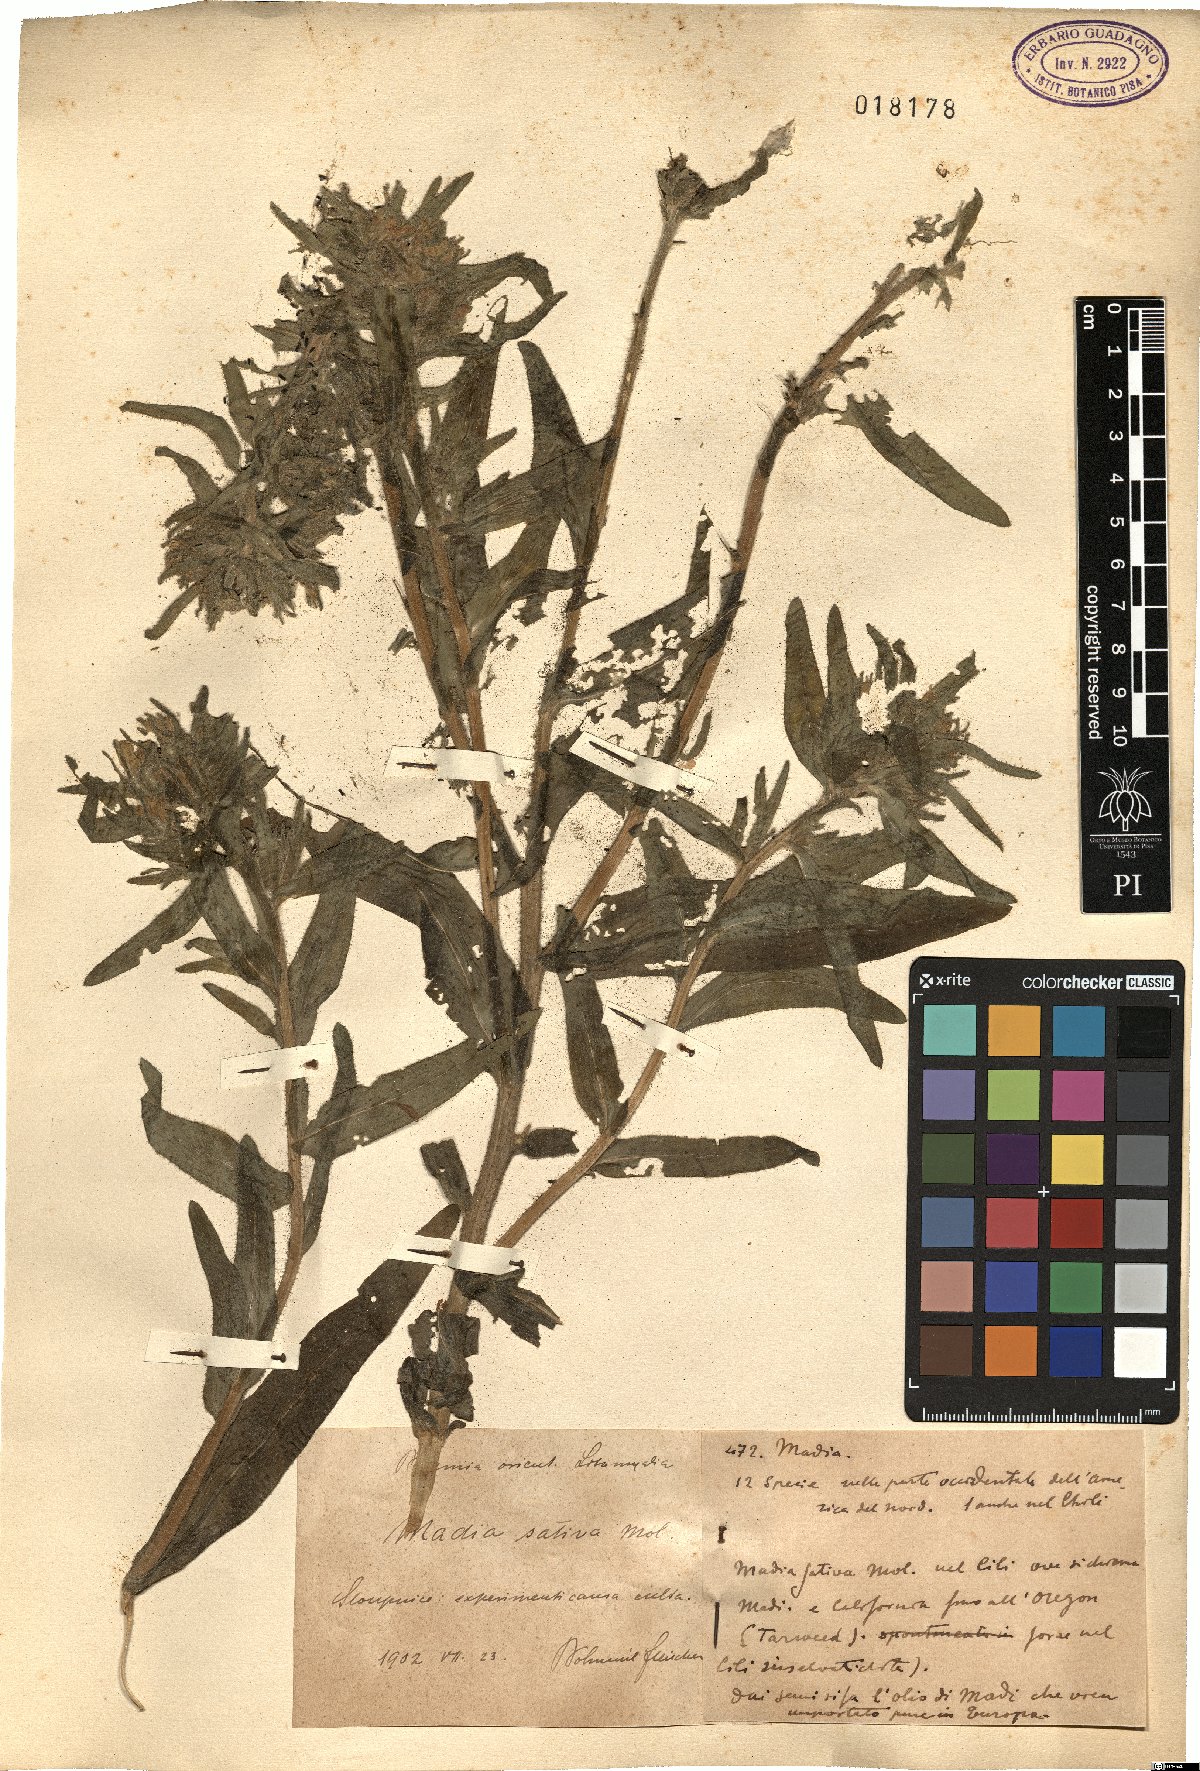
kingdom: Plantae
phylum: Tracheophyta
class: Magnoliopsida
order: Asterales
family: Asteraceae
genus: Madia
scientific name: Madia sativa
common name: Coast tarweed
